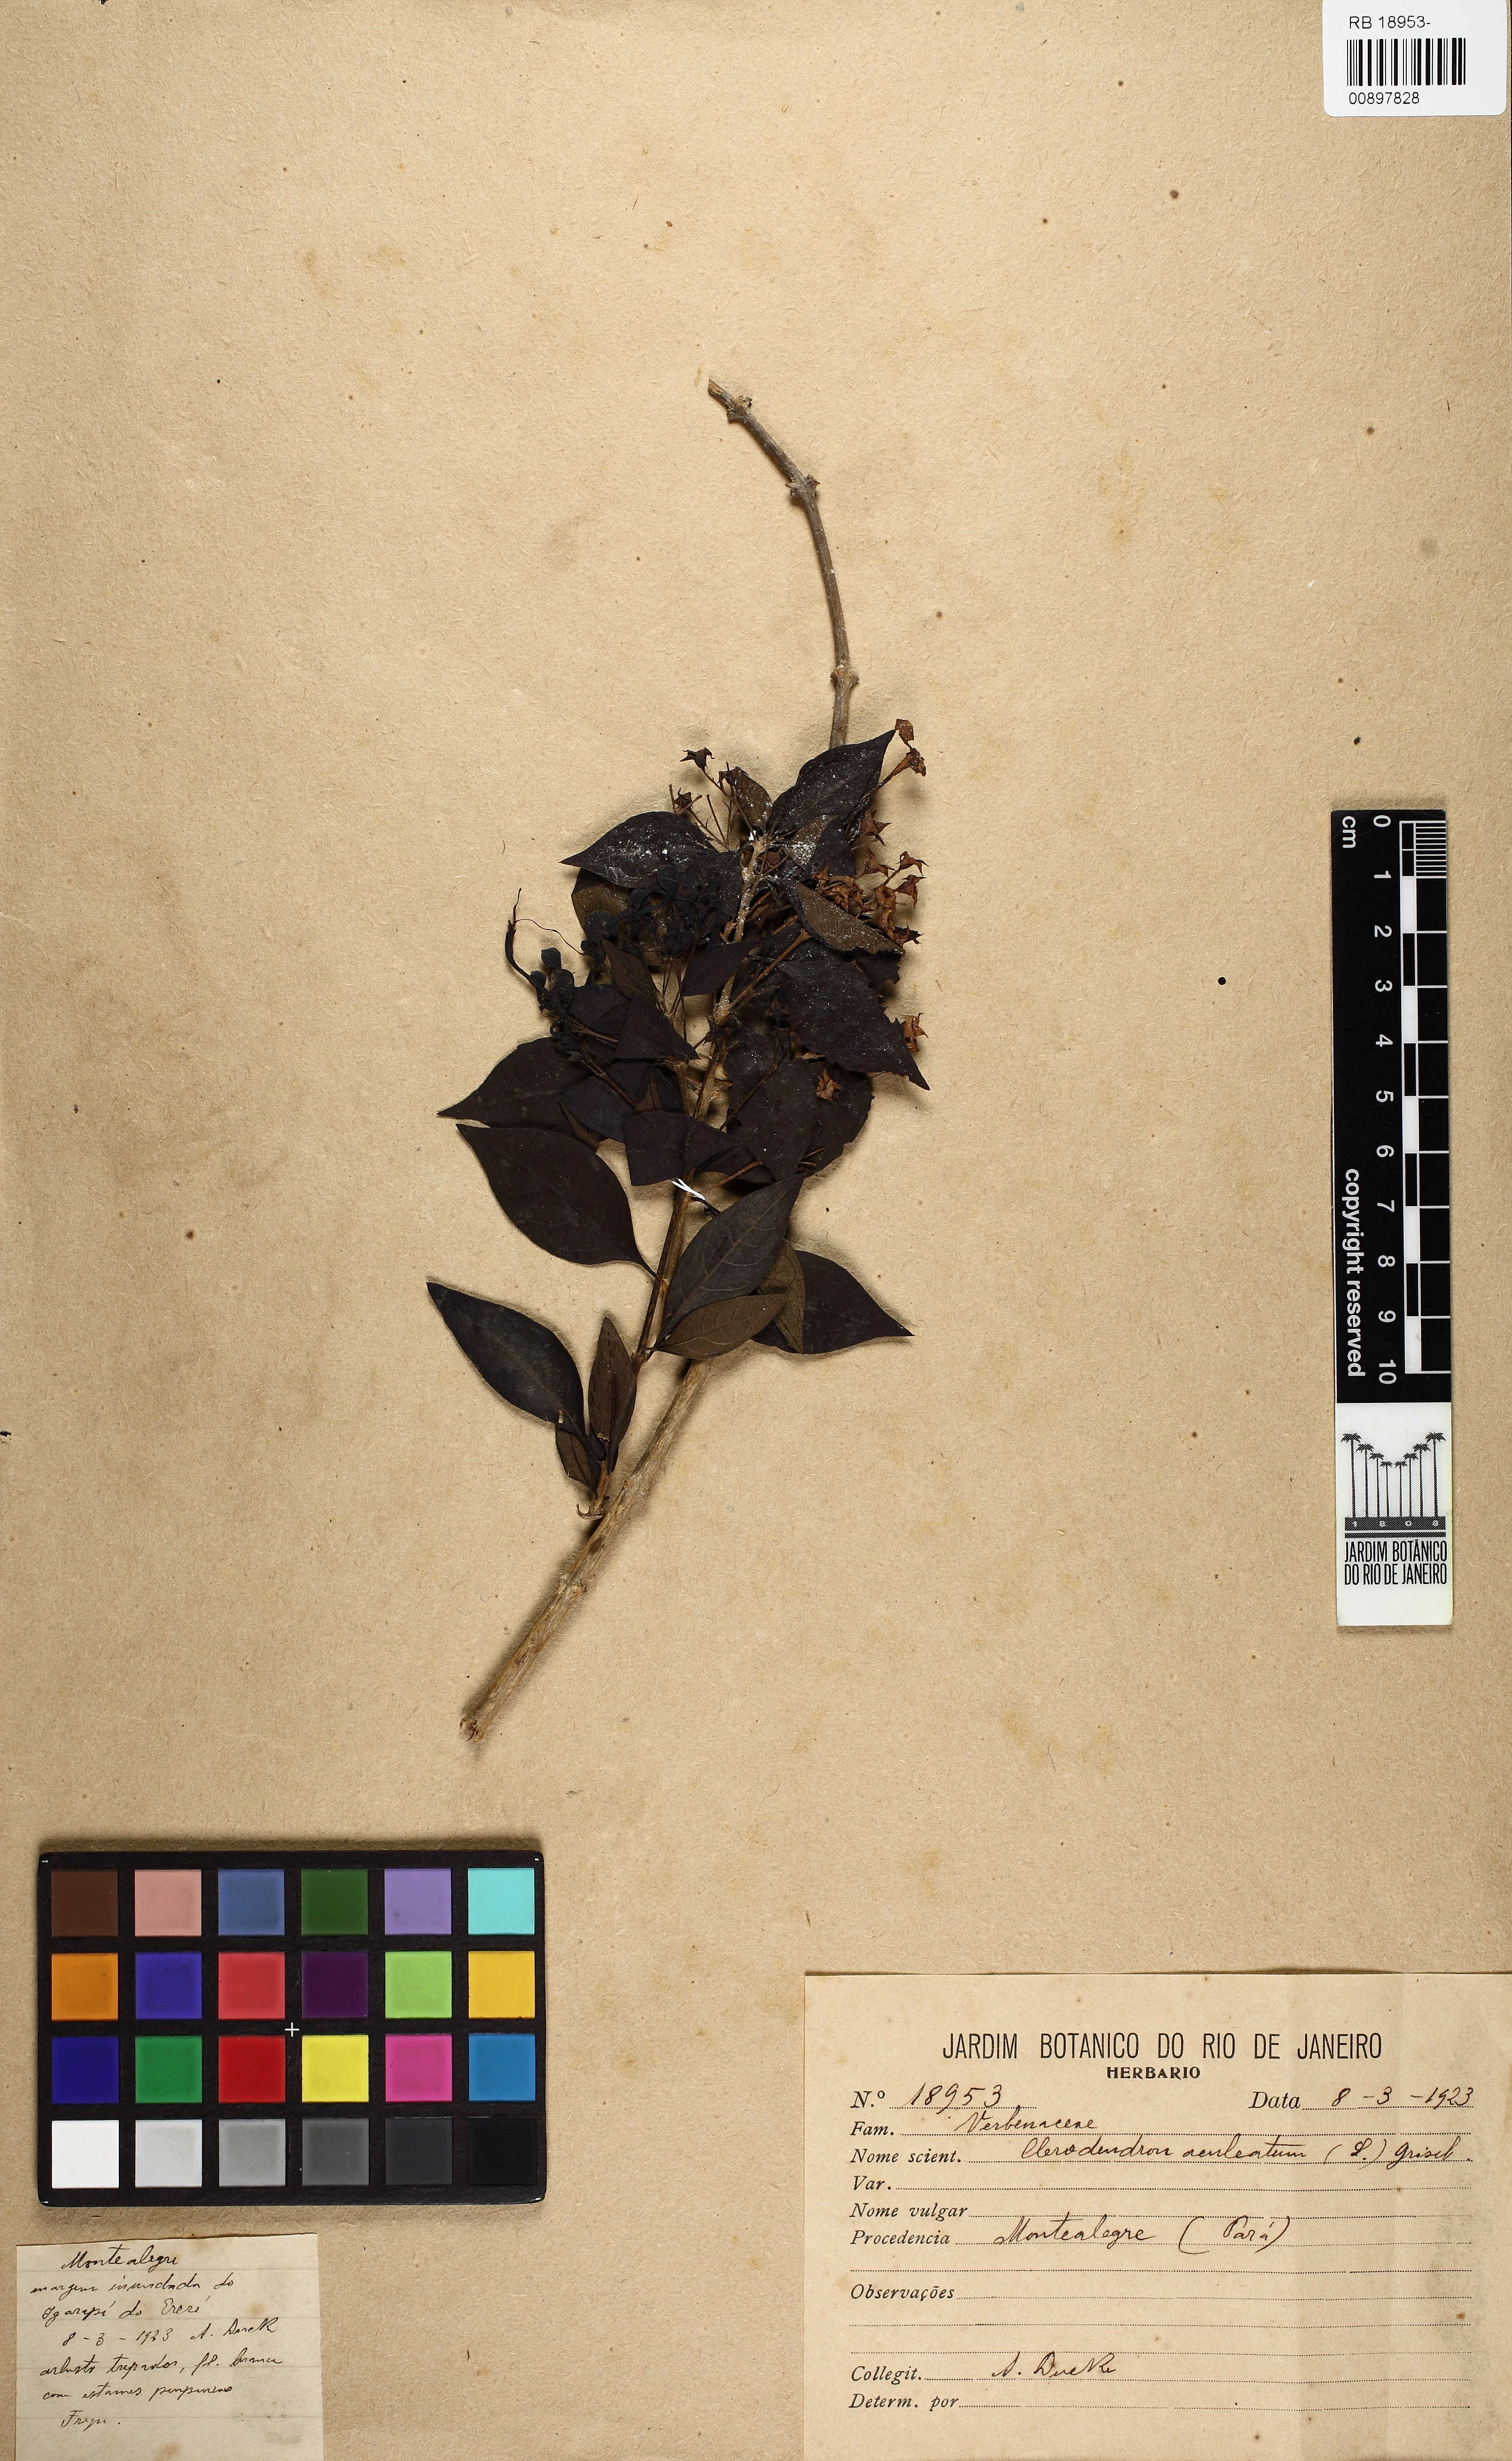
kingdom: Plantae
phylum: Tracheophyta
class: Magnoliopsida
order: Lamiales
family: Lamiaceae
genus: Volkameria
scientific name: Volkameria aculeata
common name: Prickly myrtle
